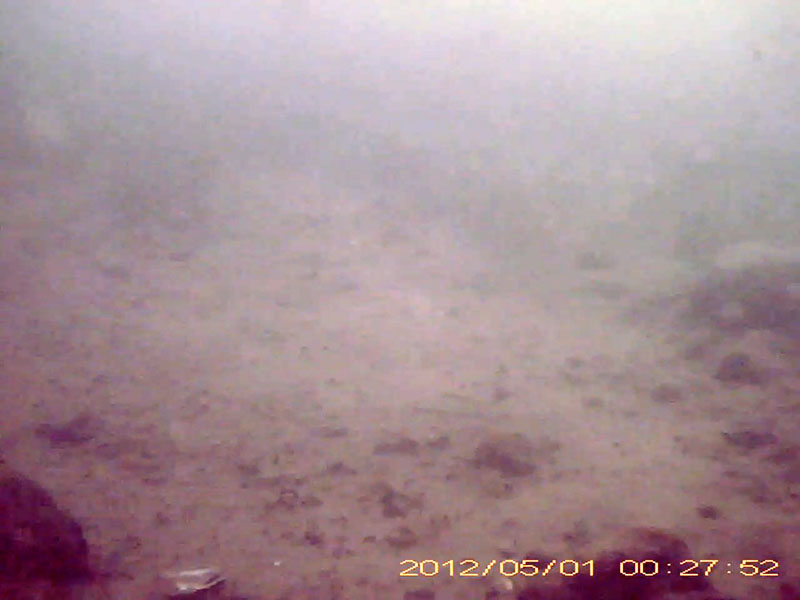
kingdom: Animalia
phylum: Chordata
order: Cypriniformes
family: Cyprinidae
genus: Pseudogobio
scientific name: Pseudogobio esocinus
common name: カマツカ
